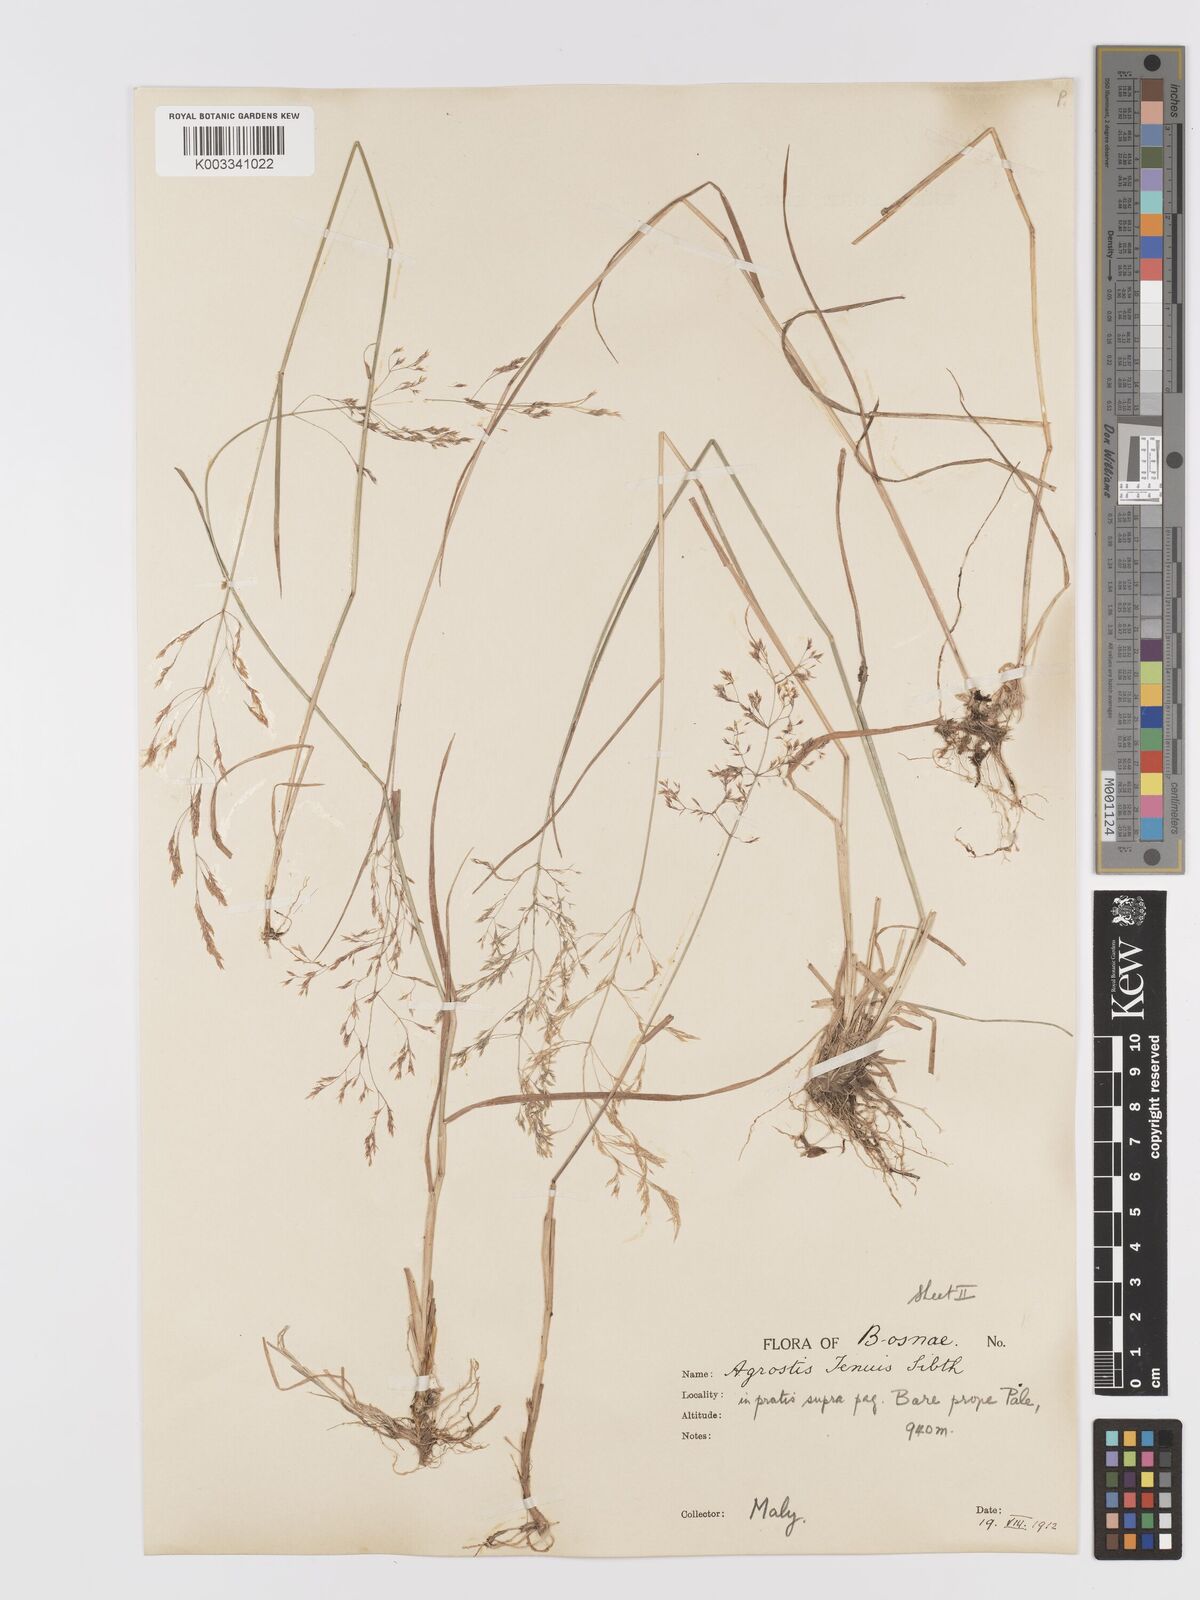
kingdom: Plantae
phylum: Tracheophyta
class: Liliopsida
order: Poales
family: Poaceae
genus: Agrostis
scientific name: Agrostis capillaris
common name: Colonial bentgrass
